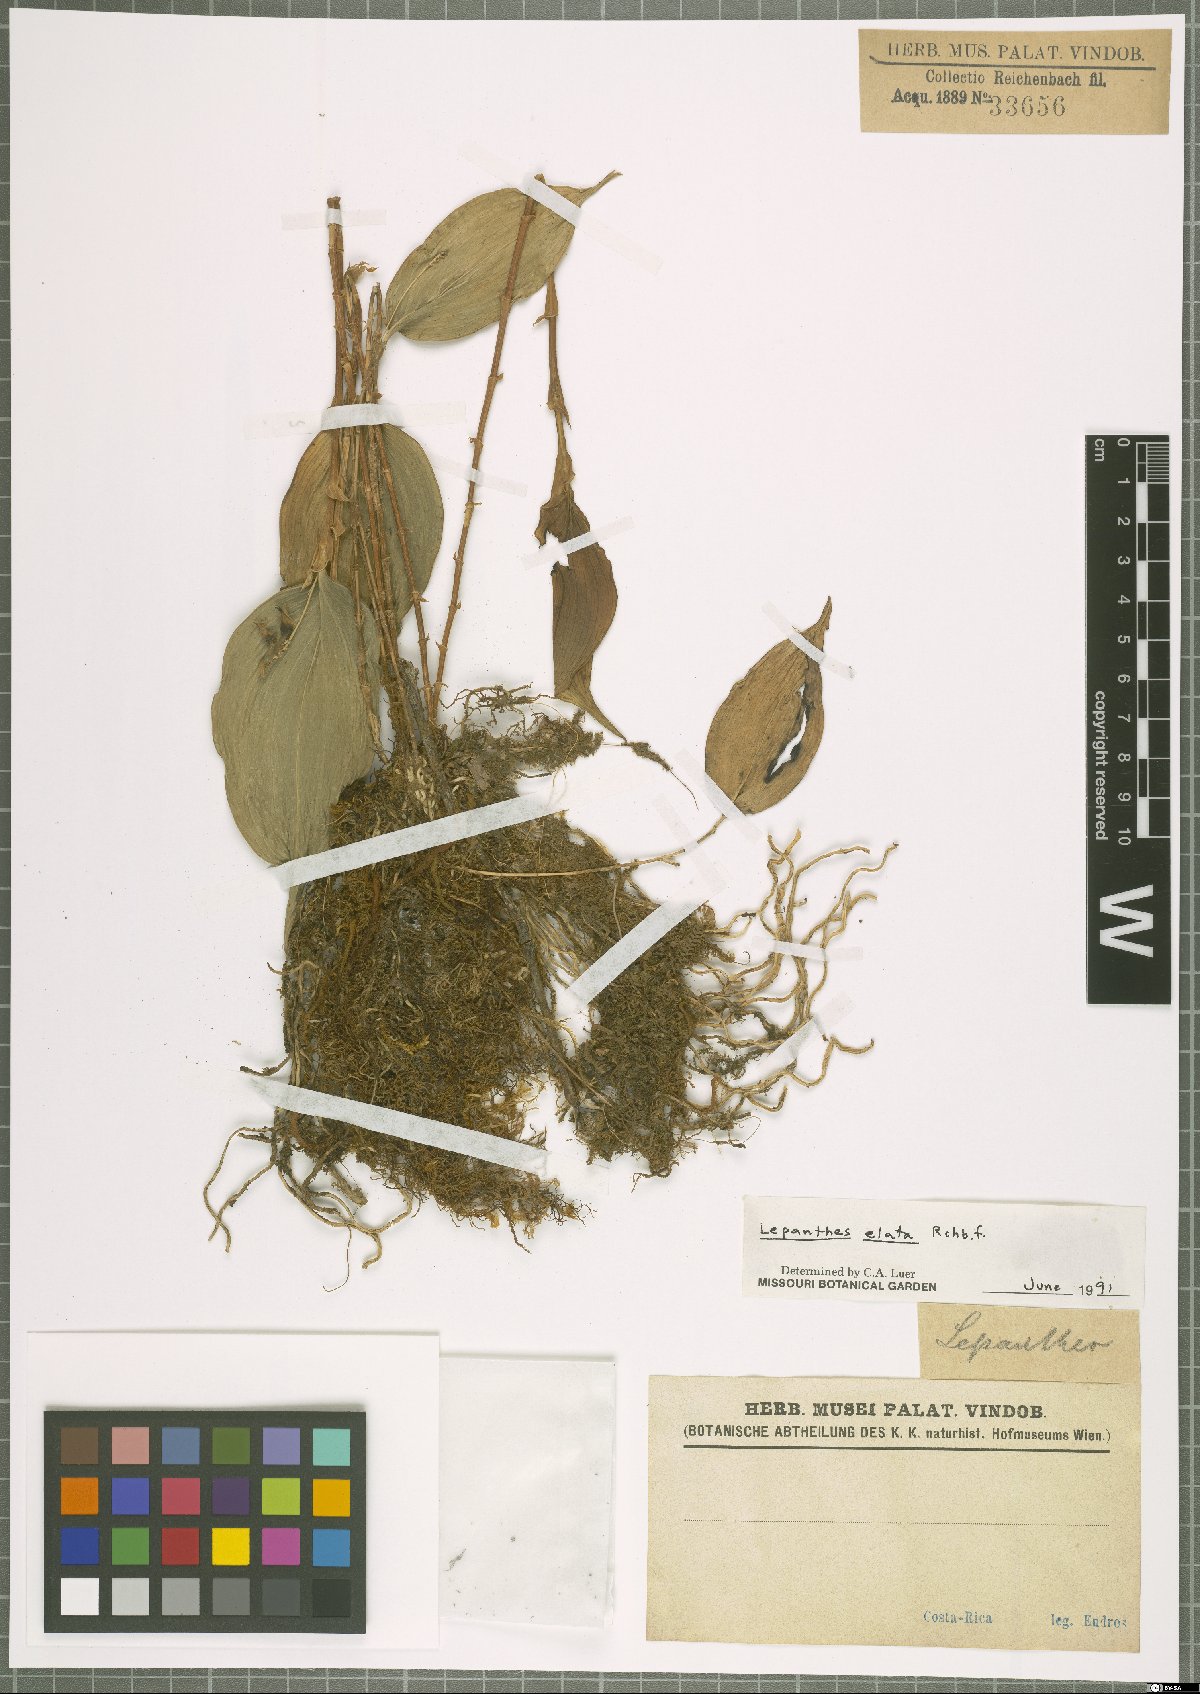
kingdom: Plantae
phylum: Tracheophyta
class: Liliopsida
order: Asparagales
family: Orchidaceae
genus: Lepanthes
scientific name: Lepanthes elata
